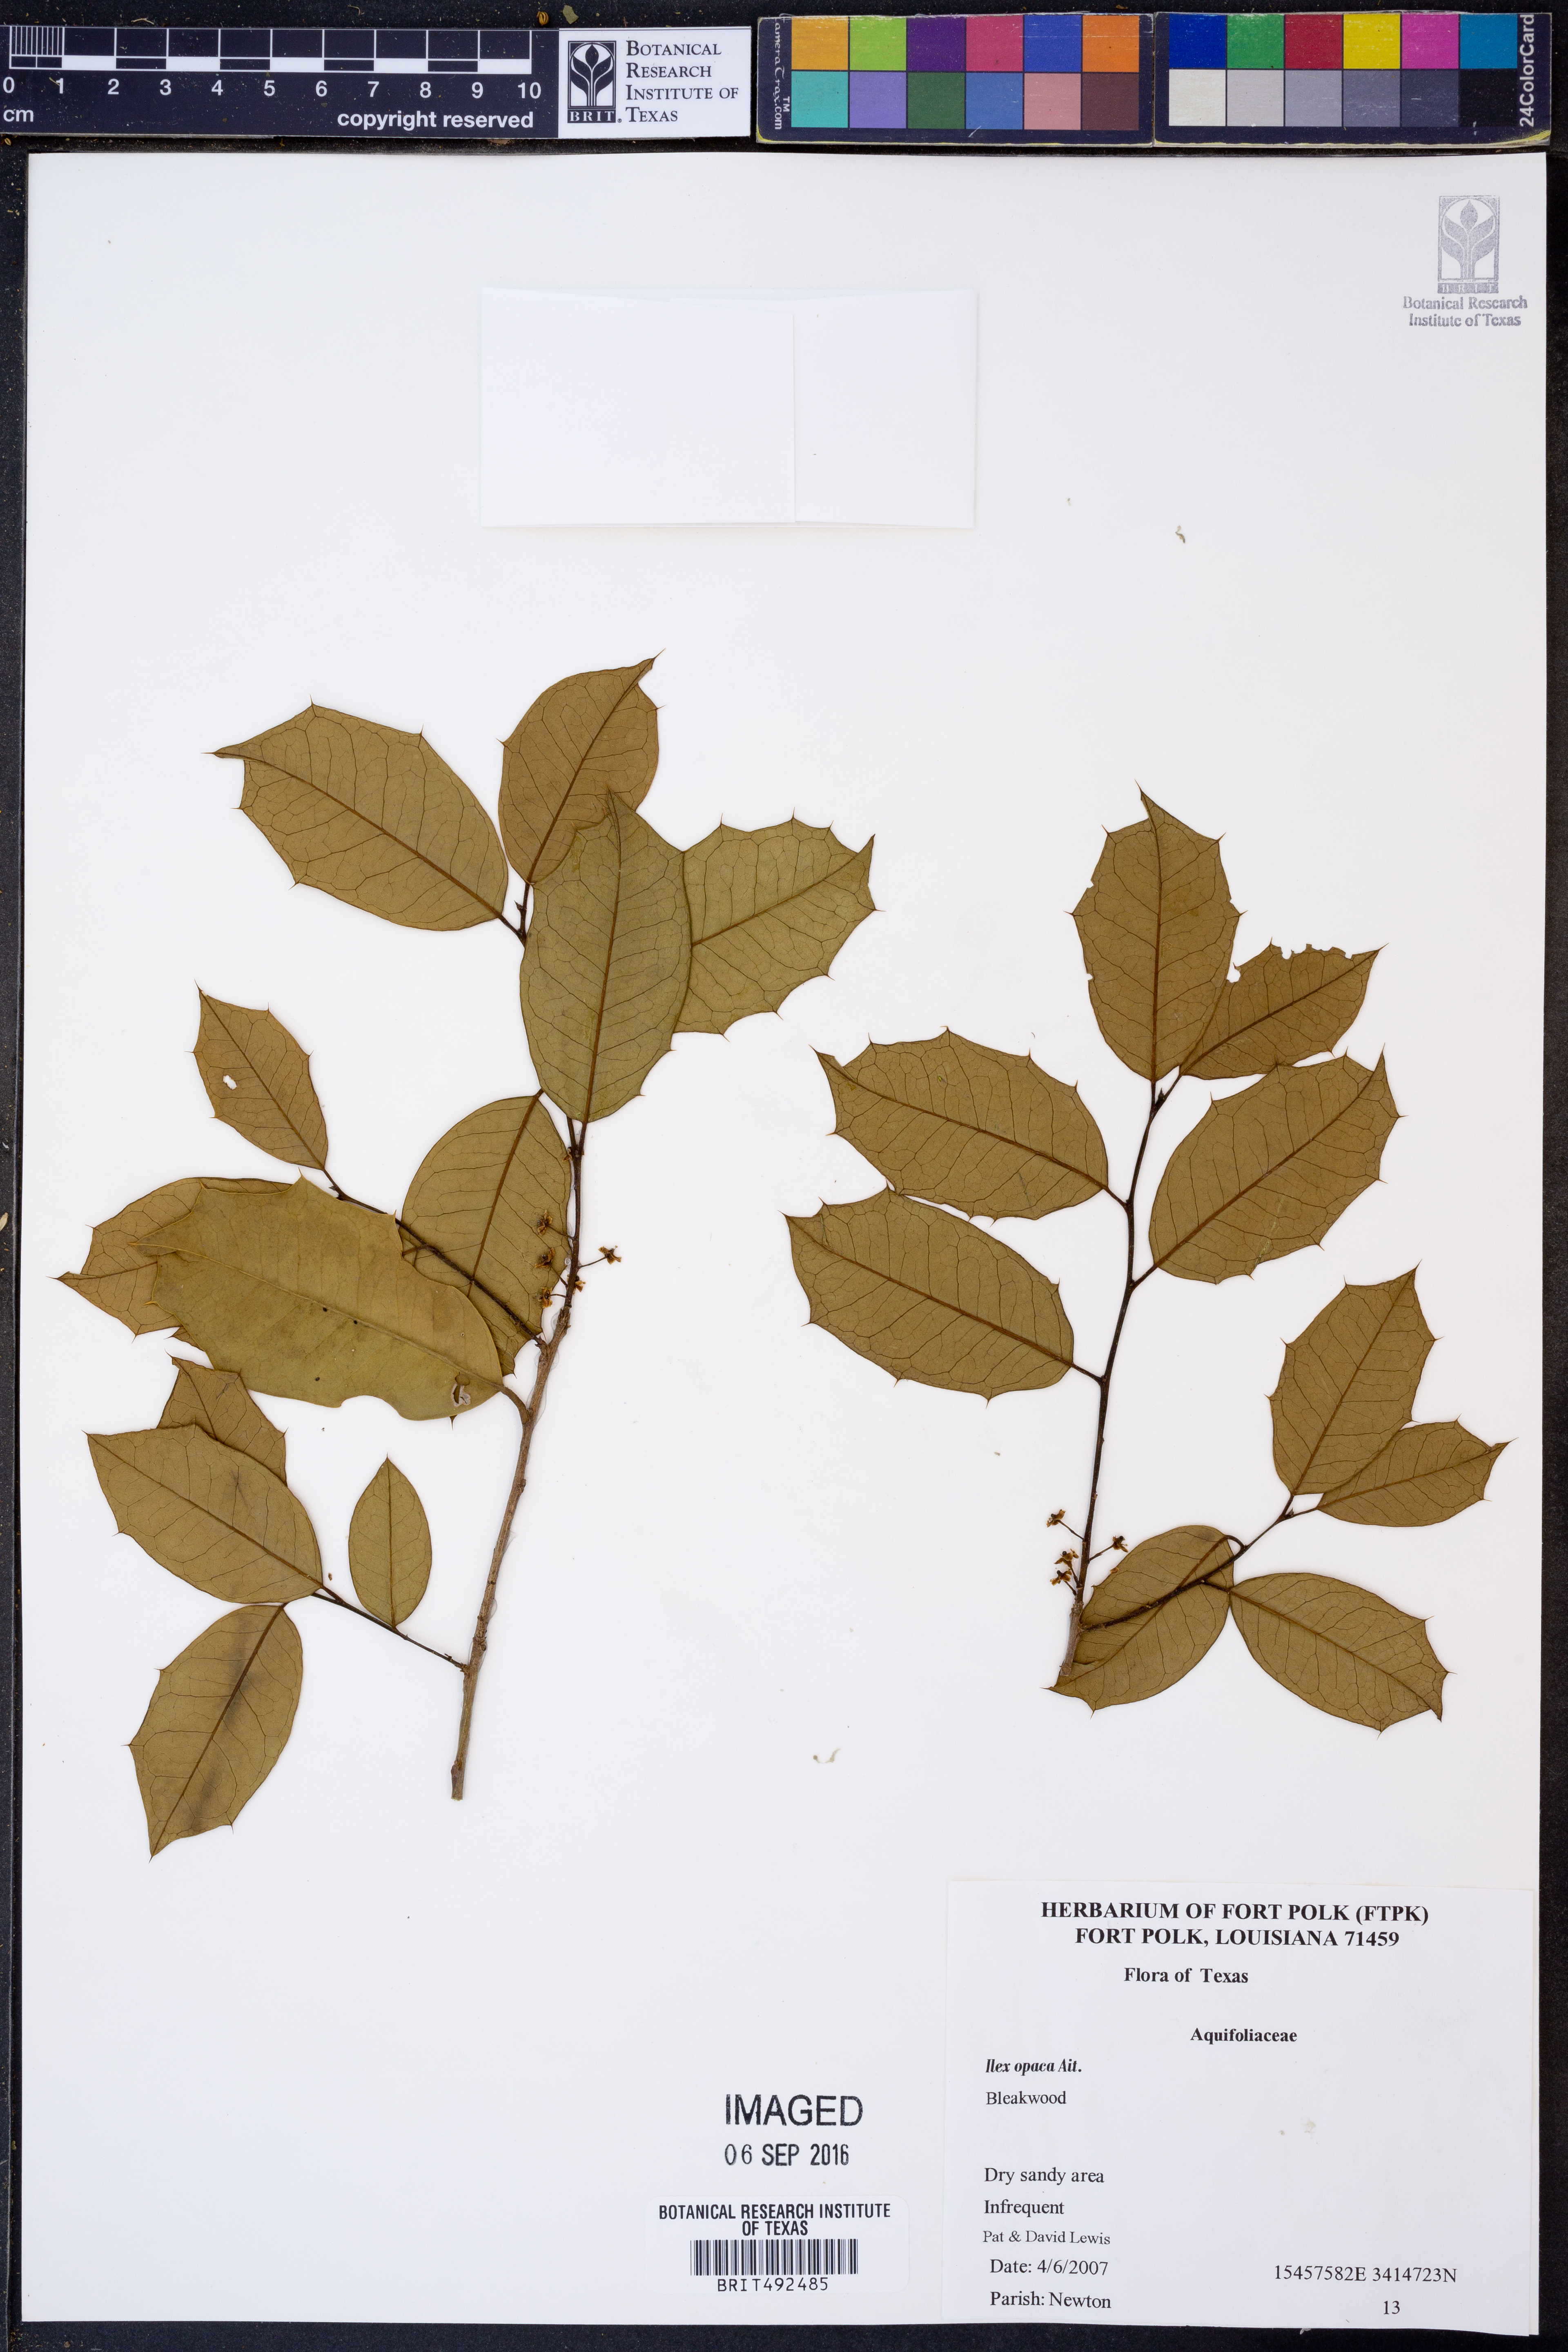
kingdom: Plantae
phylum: Tracheophyta
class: Magnoliopsida
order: Aquifoliales
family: Aquifoliaceae
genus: Ilex
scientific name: Ilex opaca
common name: American holly
